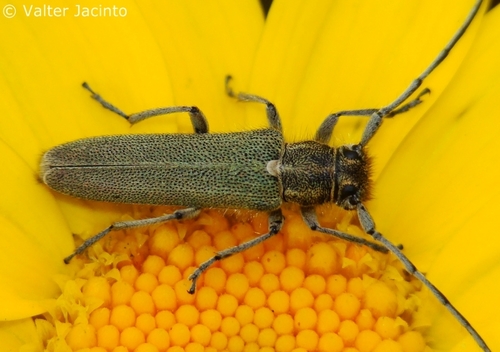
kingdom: Animalia
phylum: Arthropoda
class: Insecta
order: Coleoptera
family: Cerambycidae
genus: Phytoecia
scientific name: Phytoecia coerulescens
